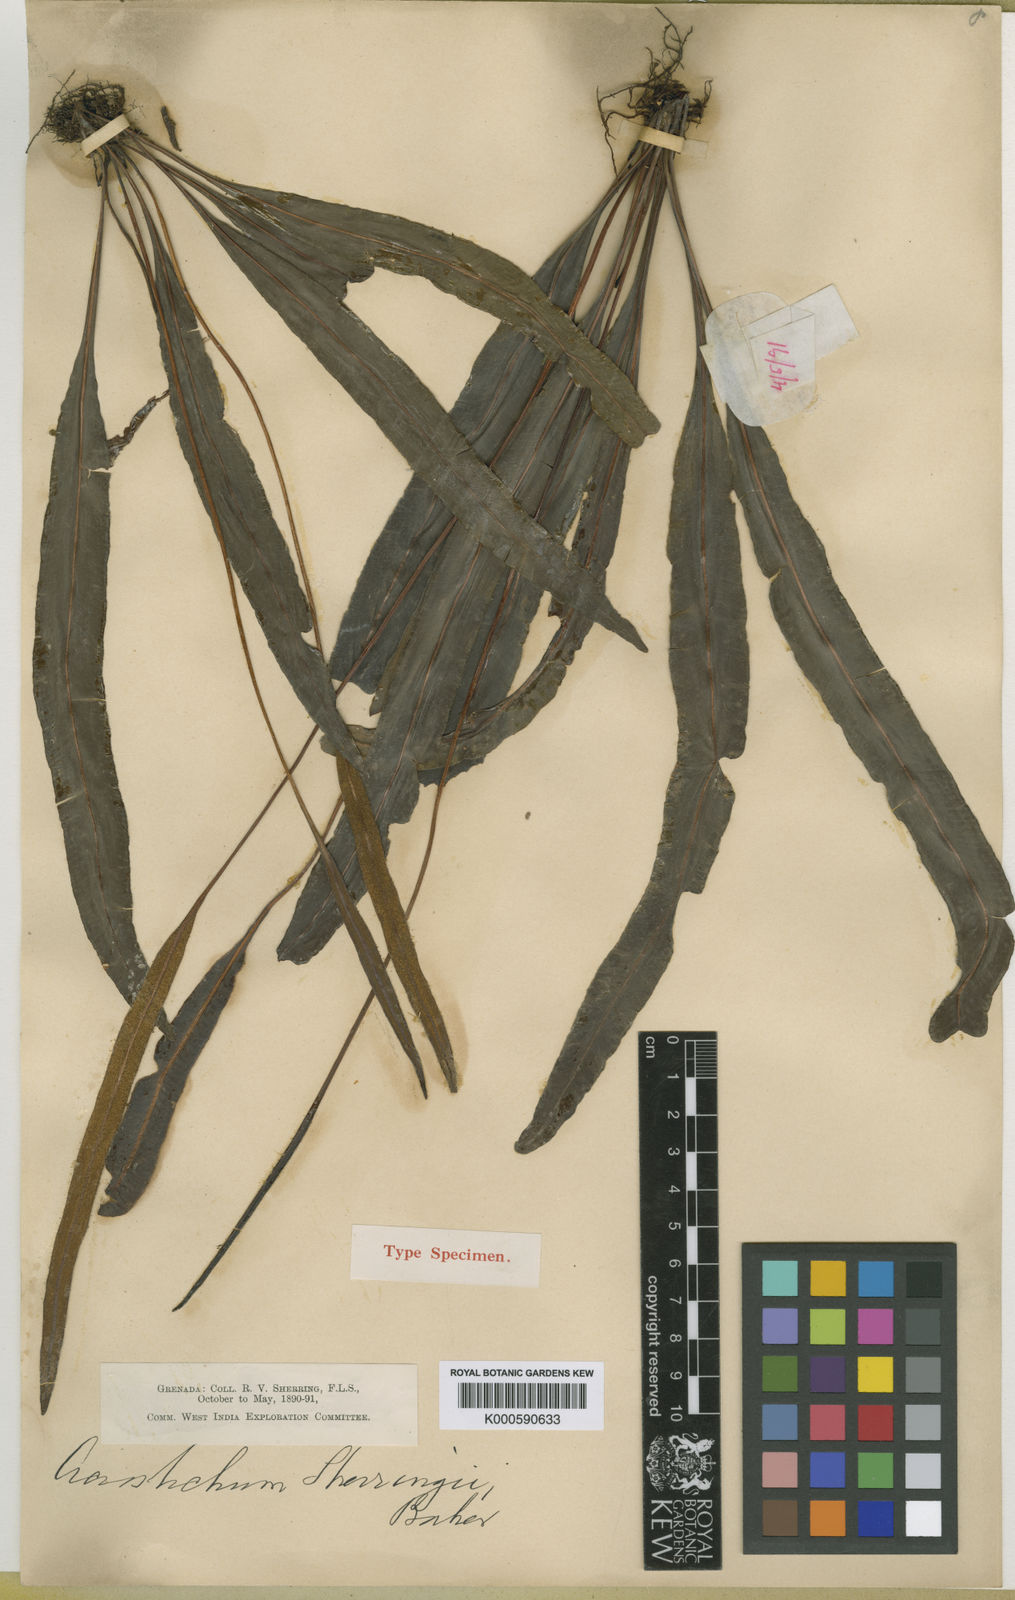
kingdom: Plantae
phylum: Tracheophyta
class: Polypodiopsida
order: Polypodiales
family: Dryopteridaceae
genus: Elaphoglossum
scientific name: Elaphoglossum nigrescens
